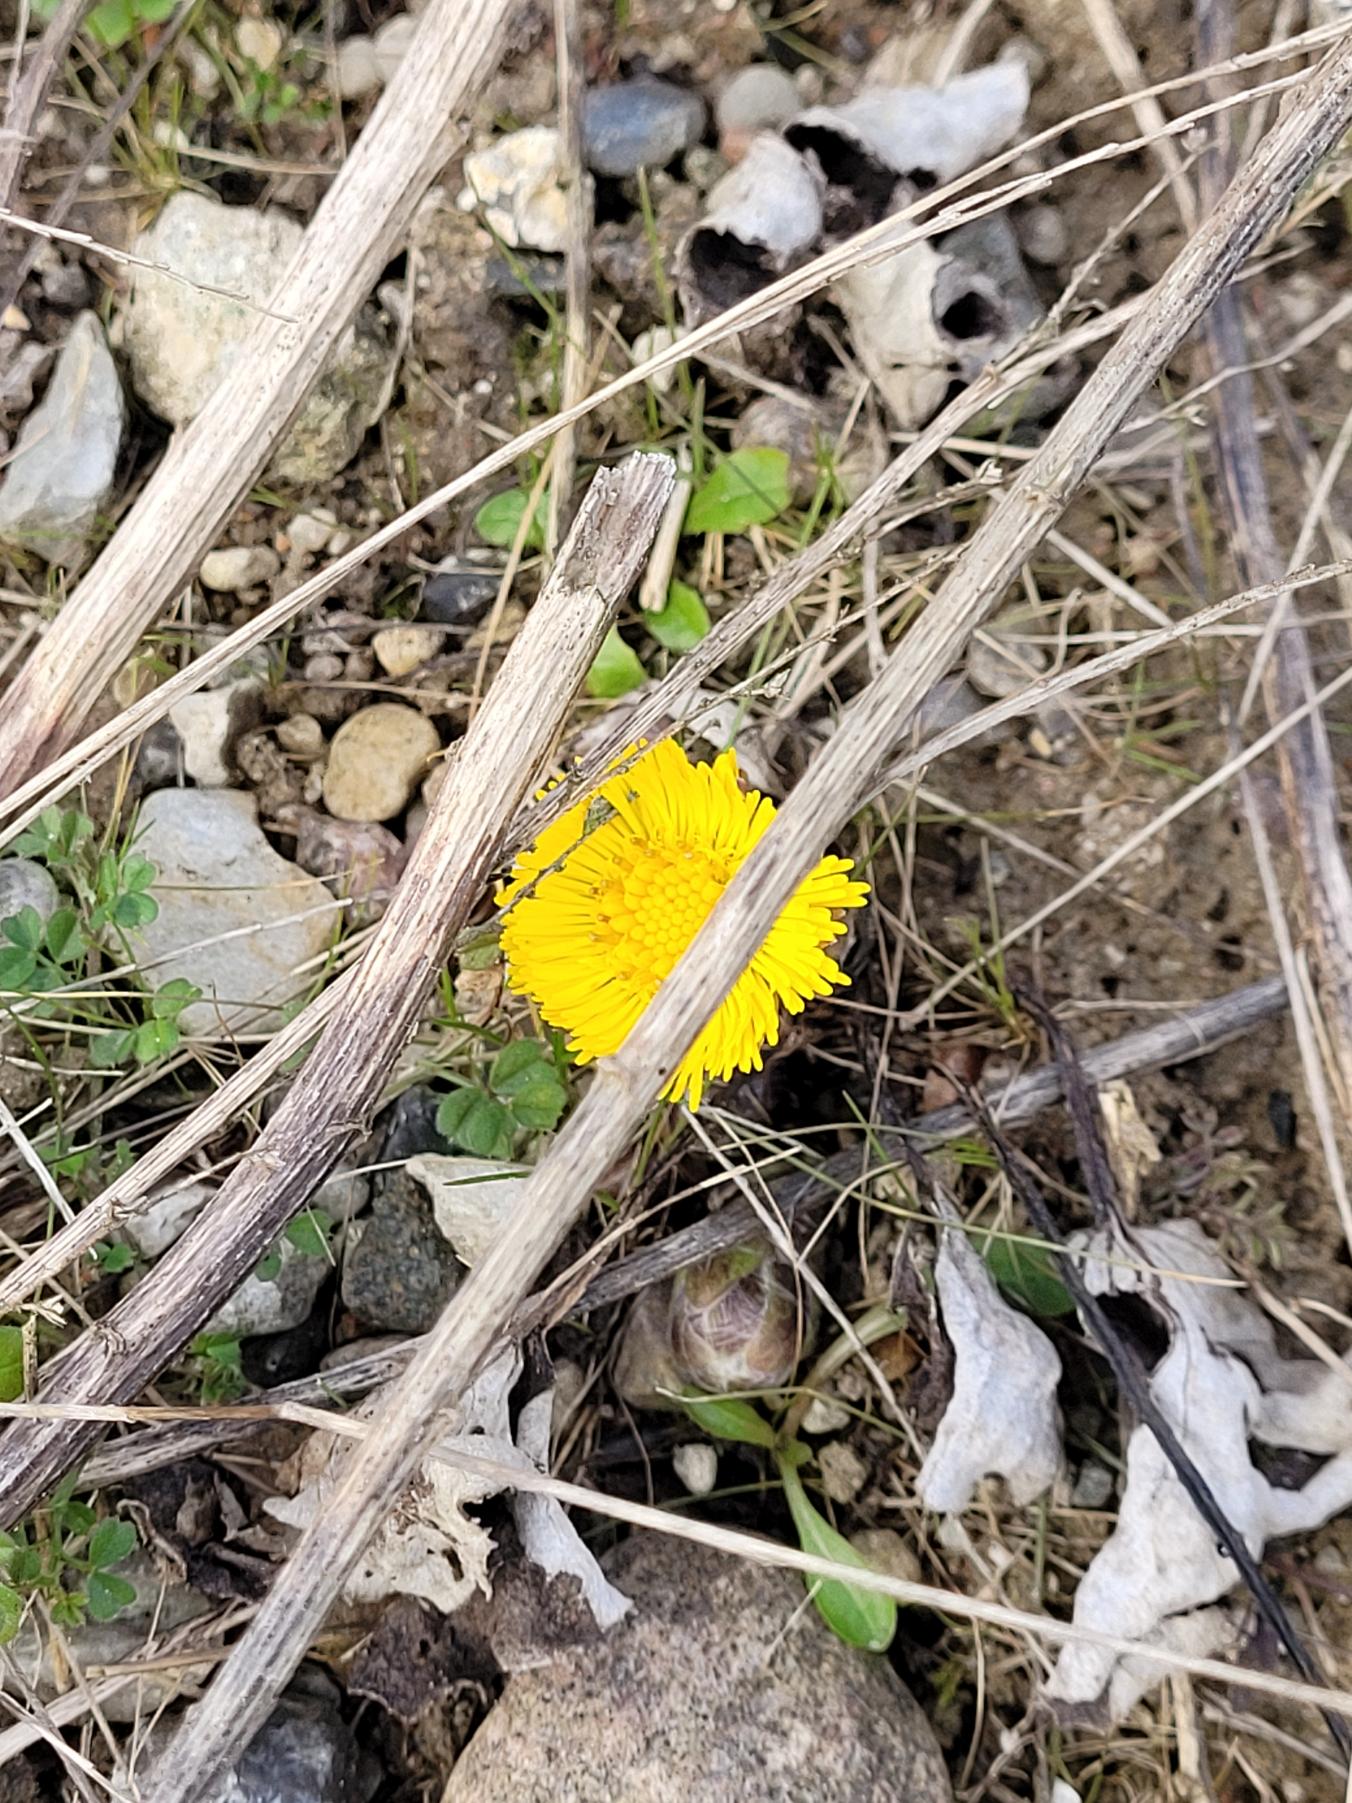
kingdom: Plantae
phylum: Tracheophyta
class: Magnoliopsida
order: Asterales
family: Asteraceae
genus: Tussilago
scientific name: Tussilago farfara
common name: Følfod
